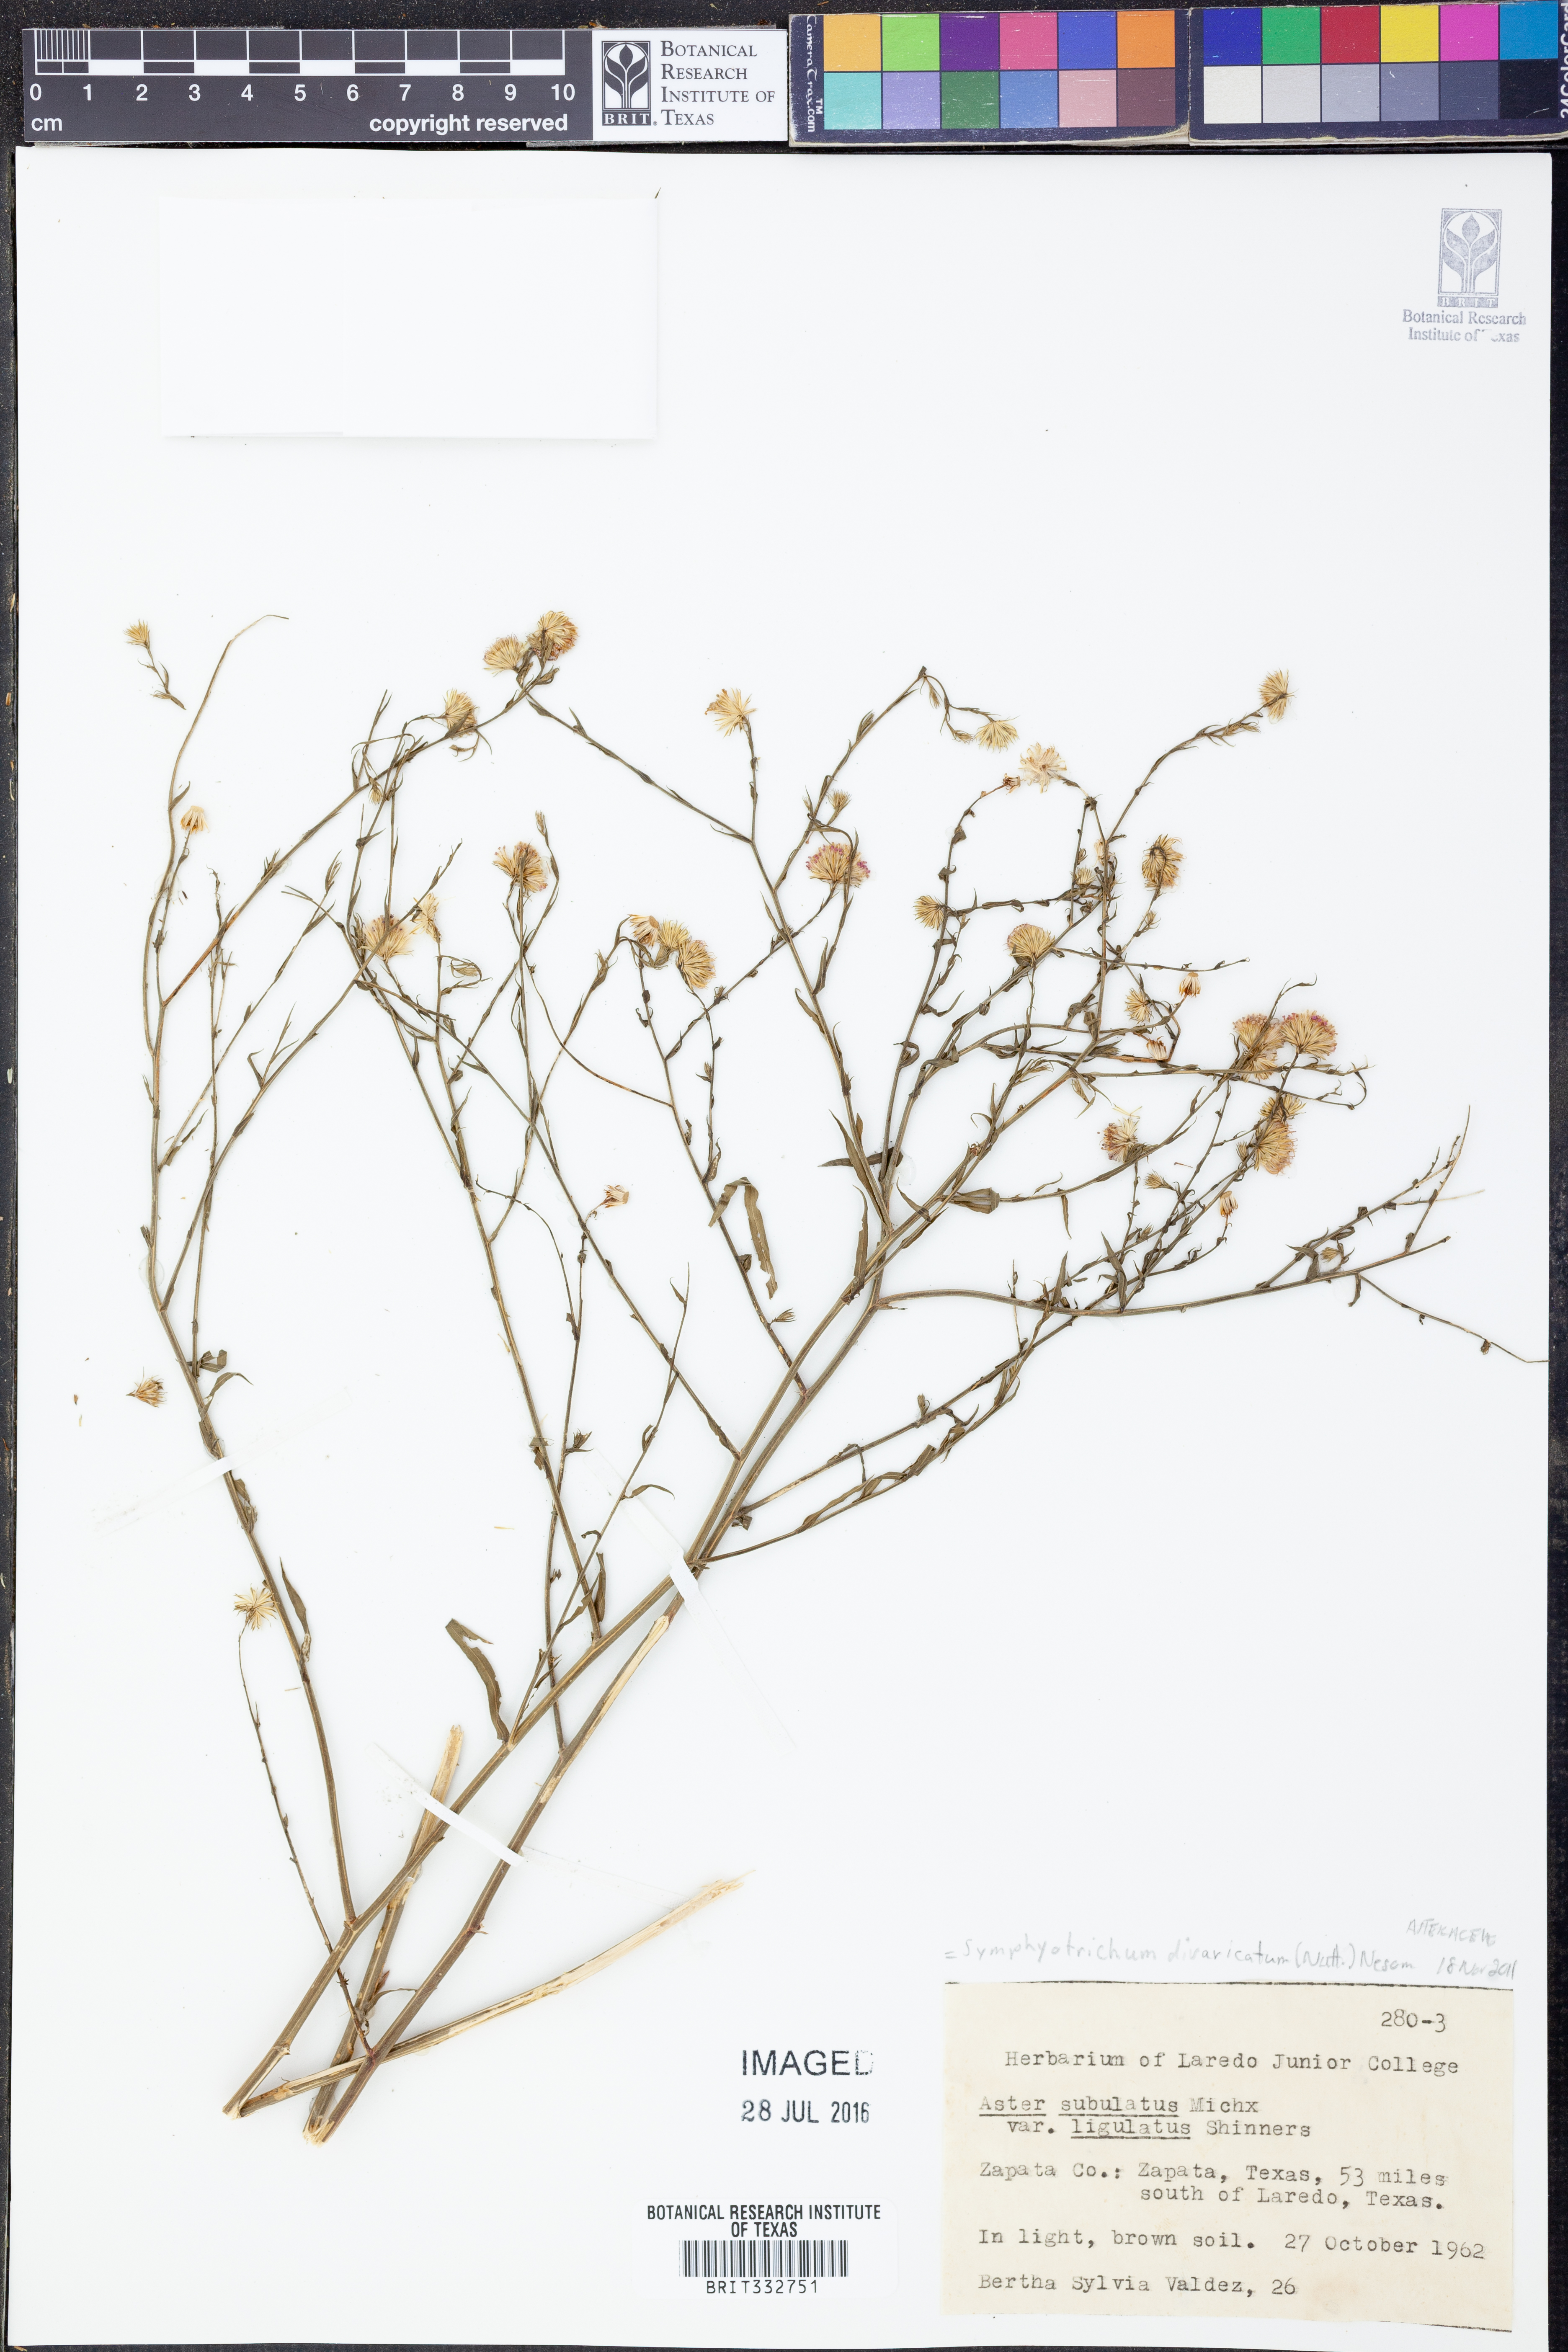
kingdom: Plantae
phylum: Tracheophyta
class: Magnoliopsida
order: Asterales
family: Asteraceae
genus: Symphyotrichum
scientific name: Symphyotrichum divaricatum
